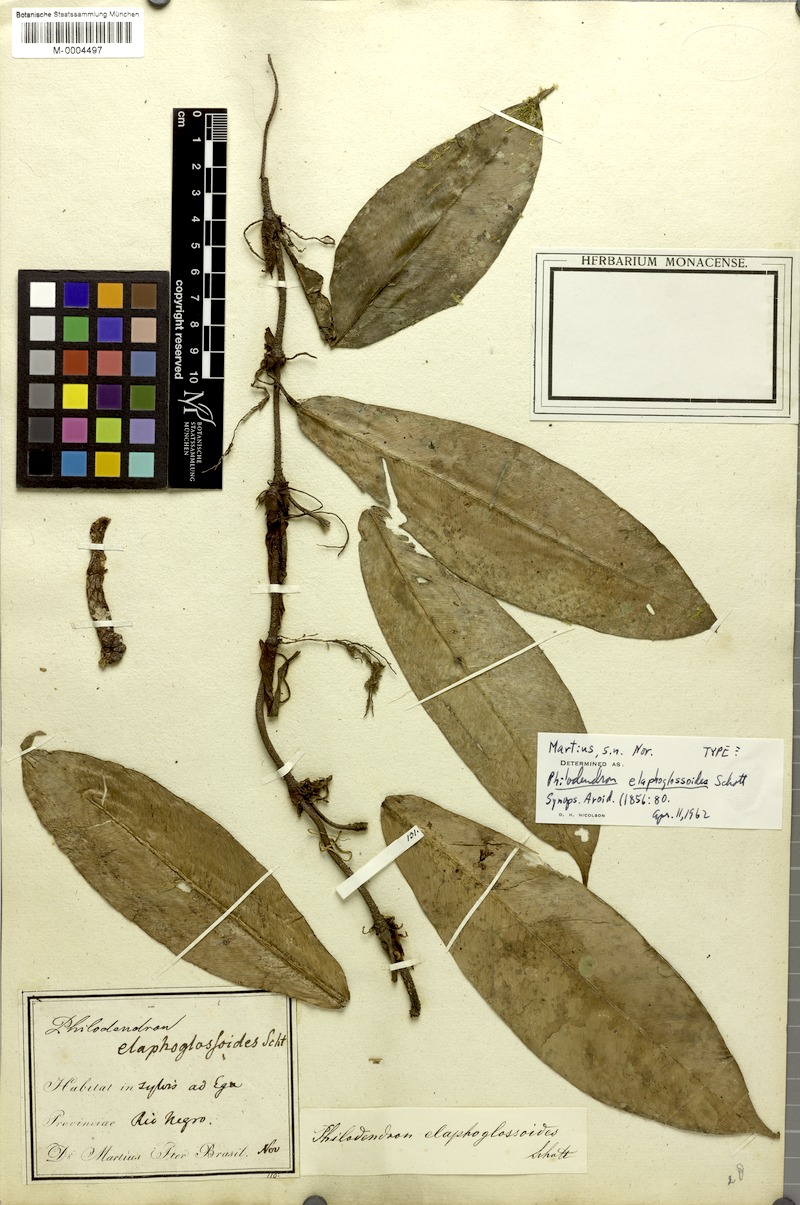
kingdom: Plantae
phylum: Tracheophyta
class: Liliopsida
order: Alismatales
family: Araceae
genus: Philodendron
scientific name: Philodendron elaphoglossoides
